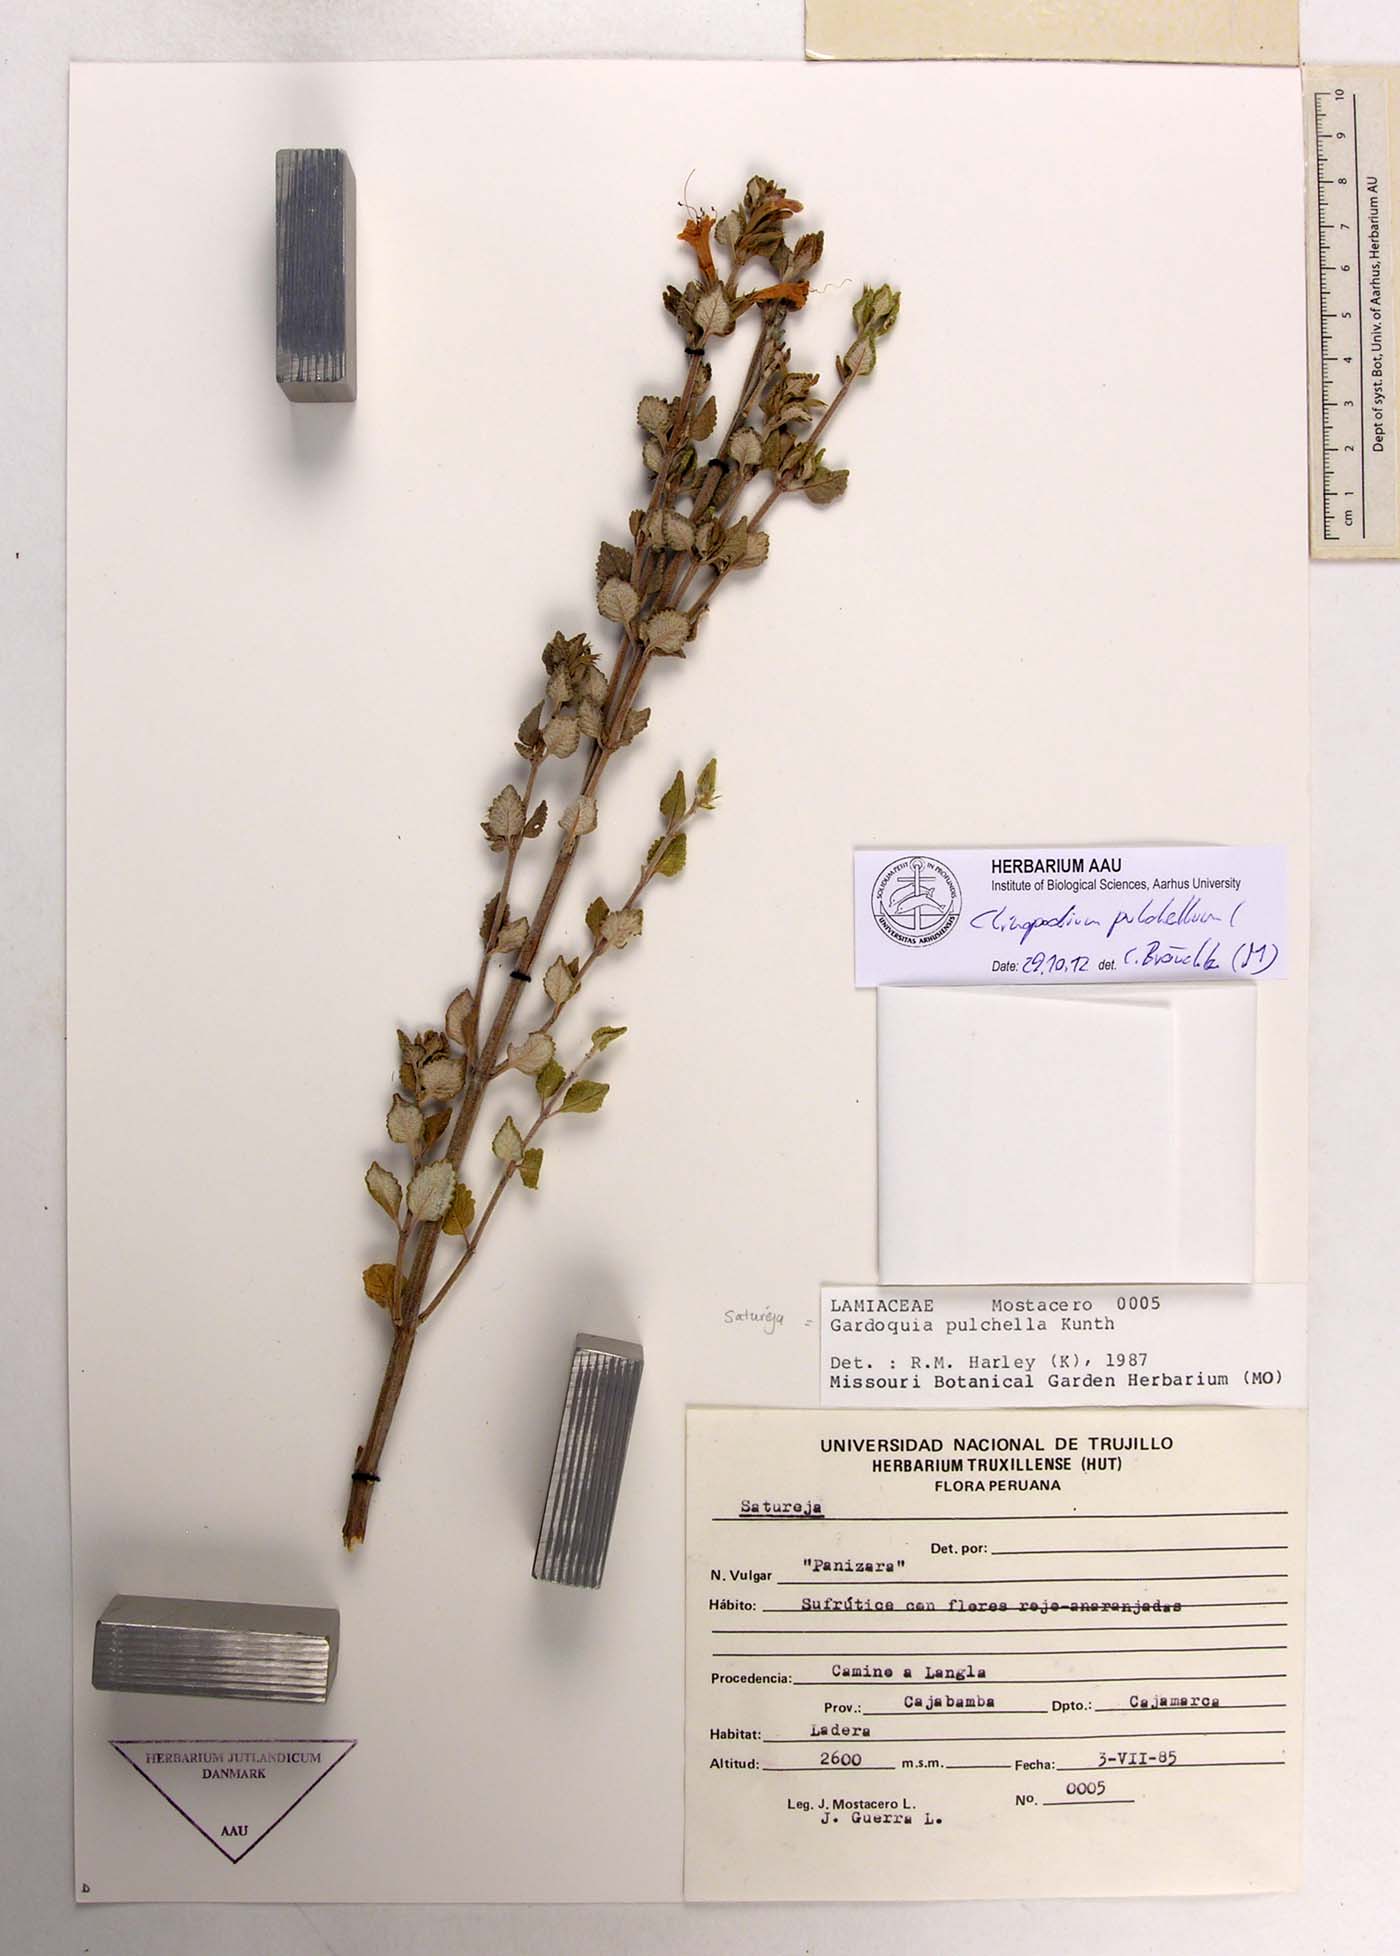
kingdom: Plantae
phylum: Tracheophyta
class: Magnoliopsida
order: Lamiales
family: Lamiaceae
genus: Clinopodium
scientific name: Clinopodium pulchellum
